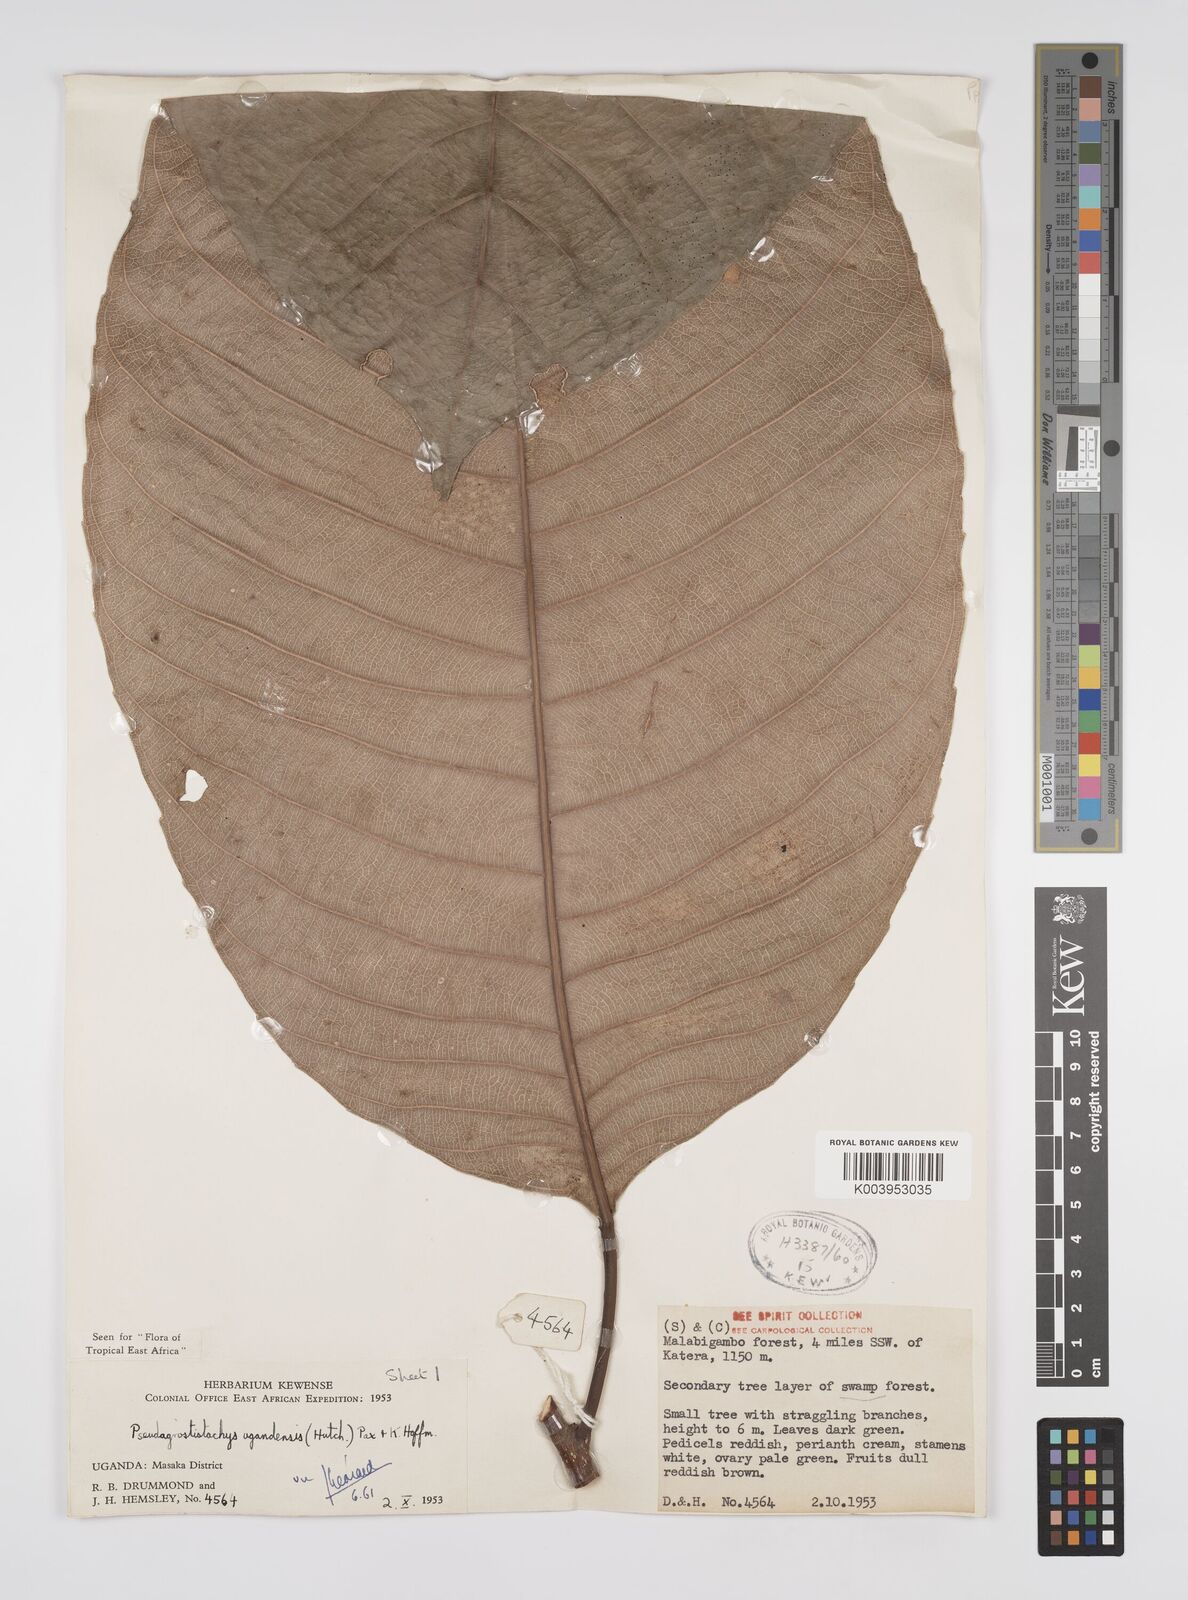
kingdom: Plantae
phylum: Tracheophyta
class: Magnoliopsida
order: Malpighiales
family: Euphorbiaceae
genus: Pseudagrostistachys
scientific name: Pseudagrostistachys ugandensis
